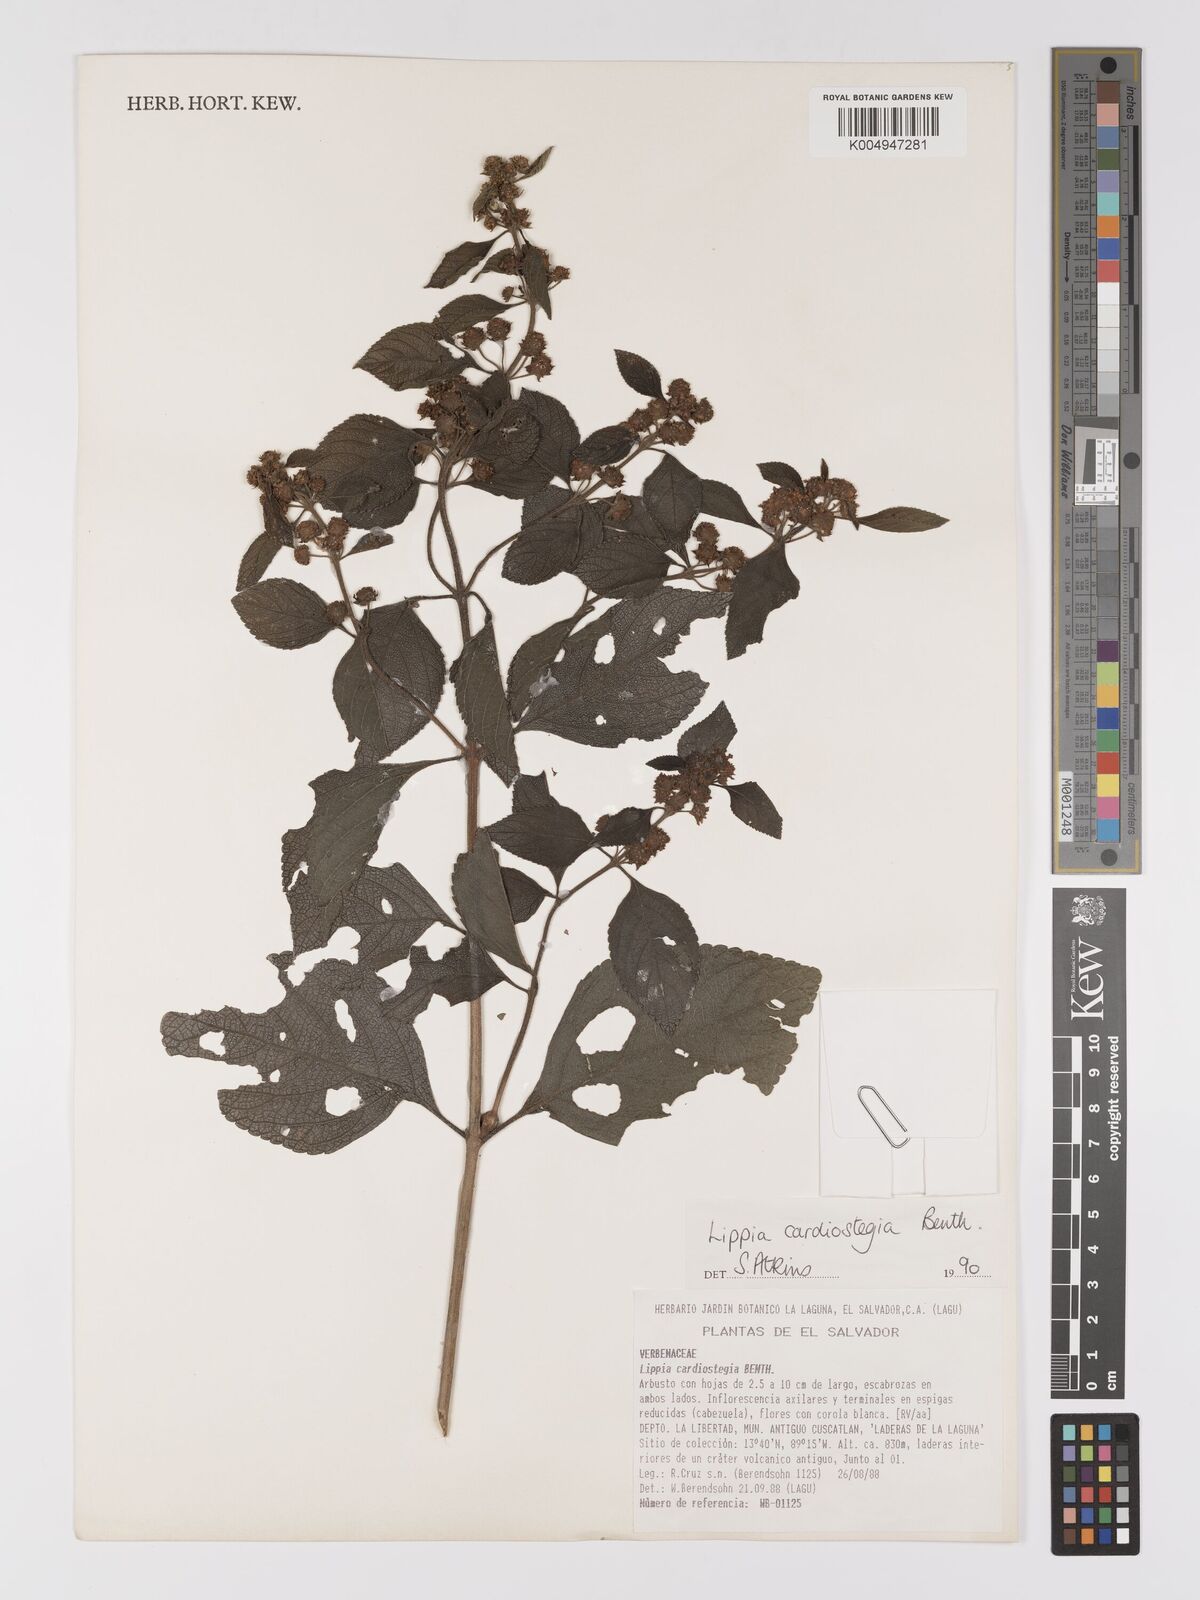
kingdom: Plantae
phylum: Tracheophyta
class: Magnoliopsida
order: Lamiales
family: Verbenaceae
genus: Lippia
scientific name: Lippia cardiostegia
